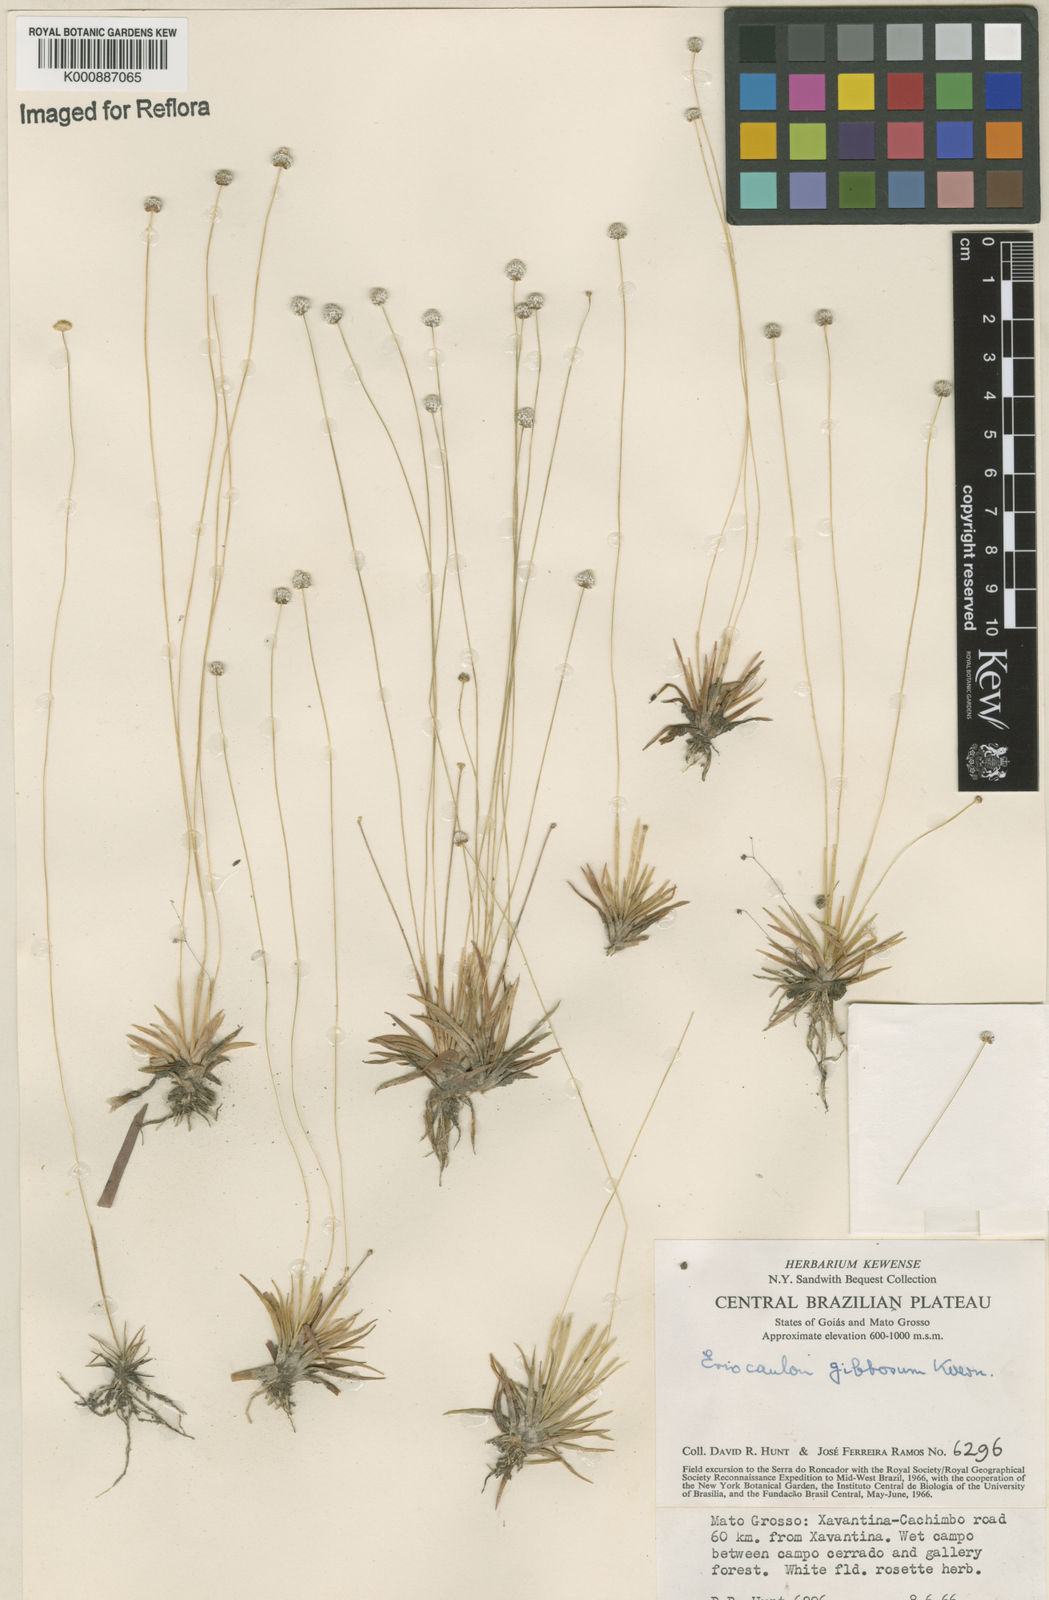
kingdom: Plantae
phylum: Tracheophyta
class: Liliopsida
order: Poales
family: Eriocaulaceae
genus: Eriocaulon
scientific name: Eriocaulon
